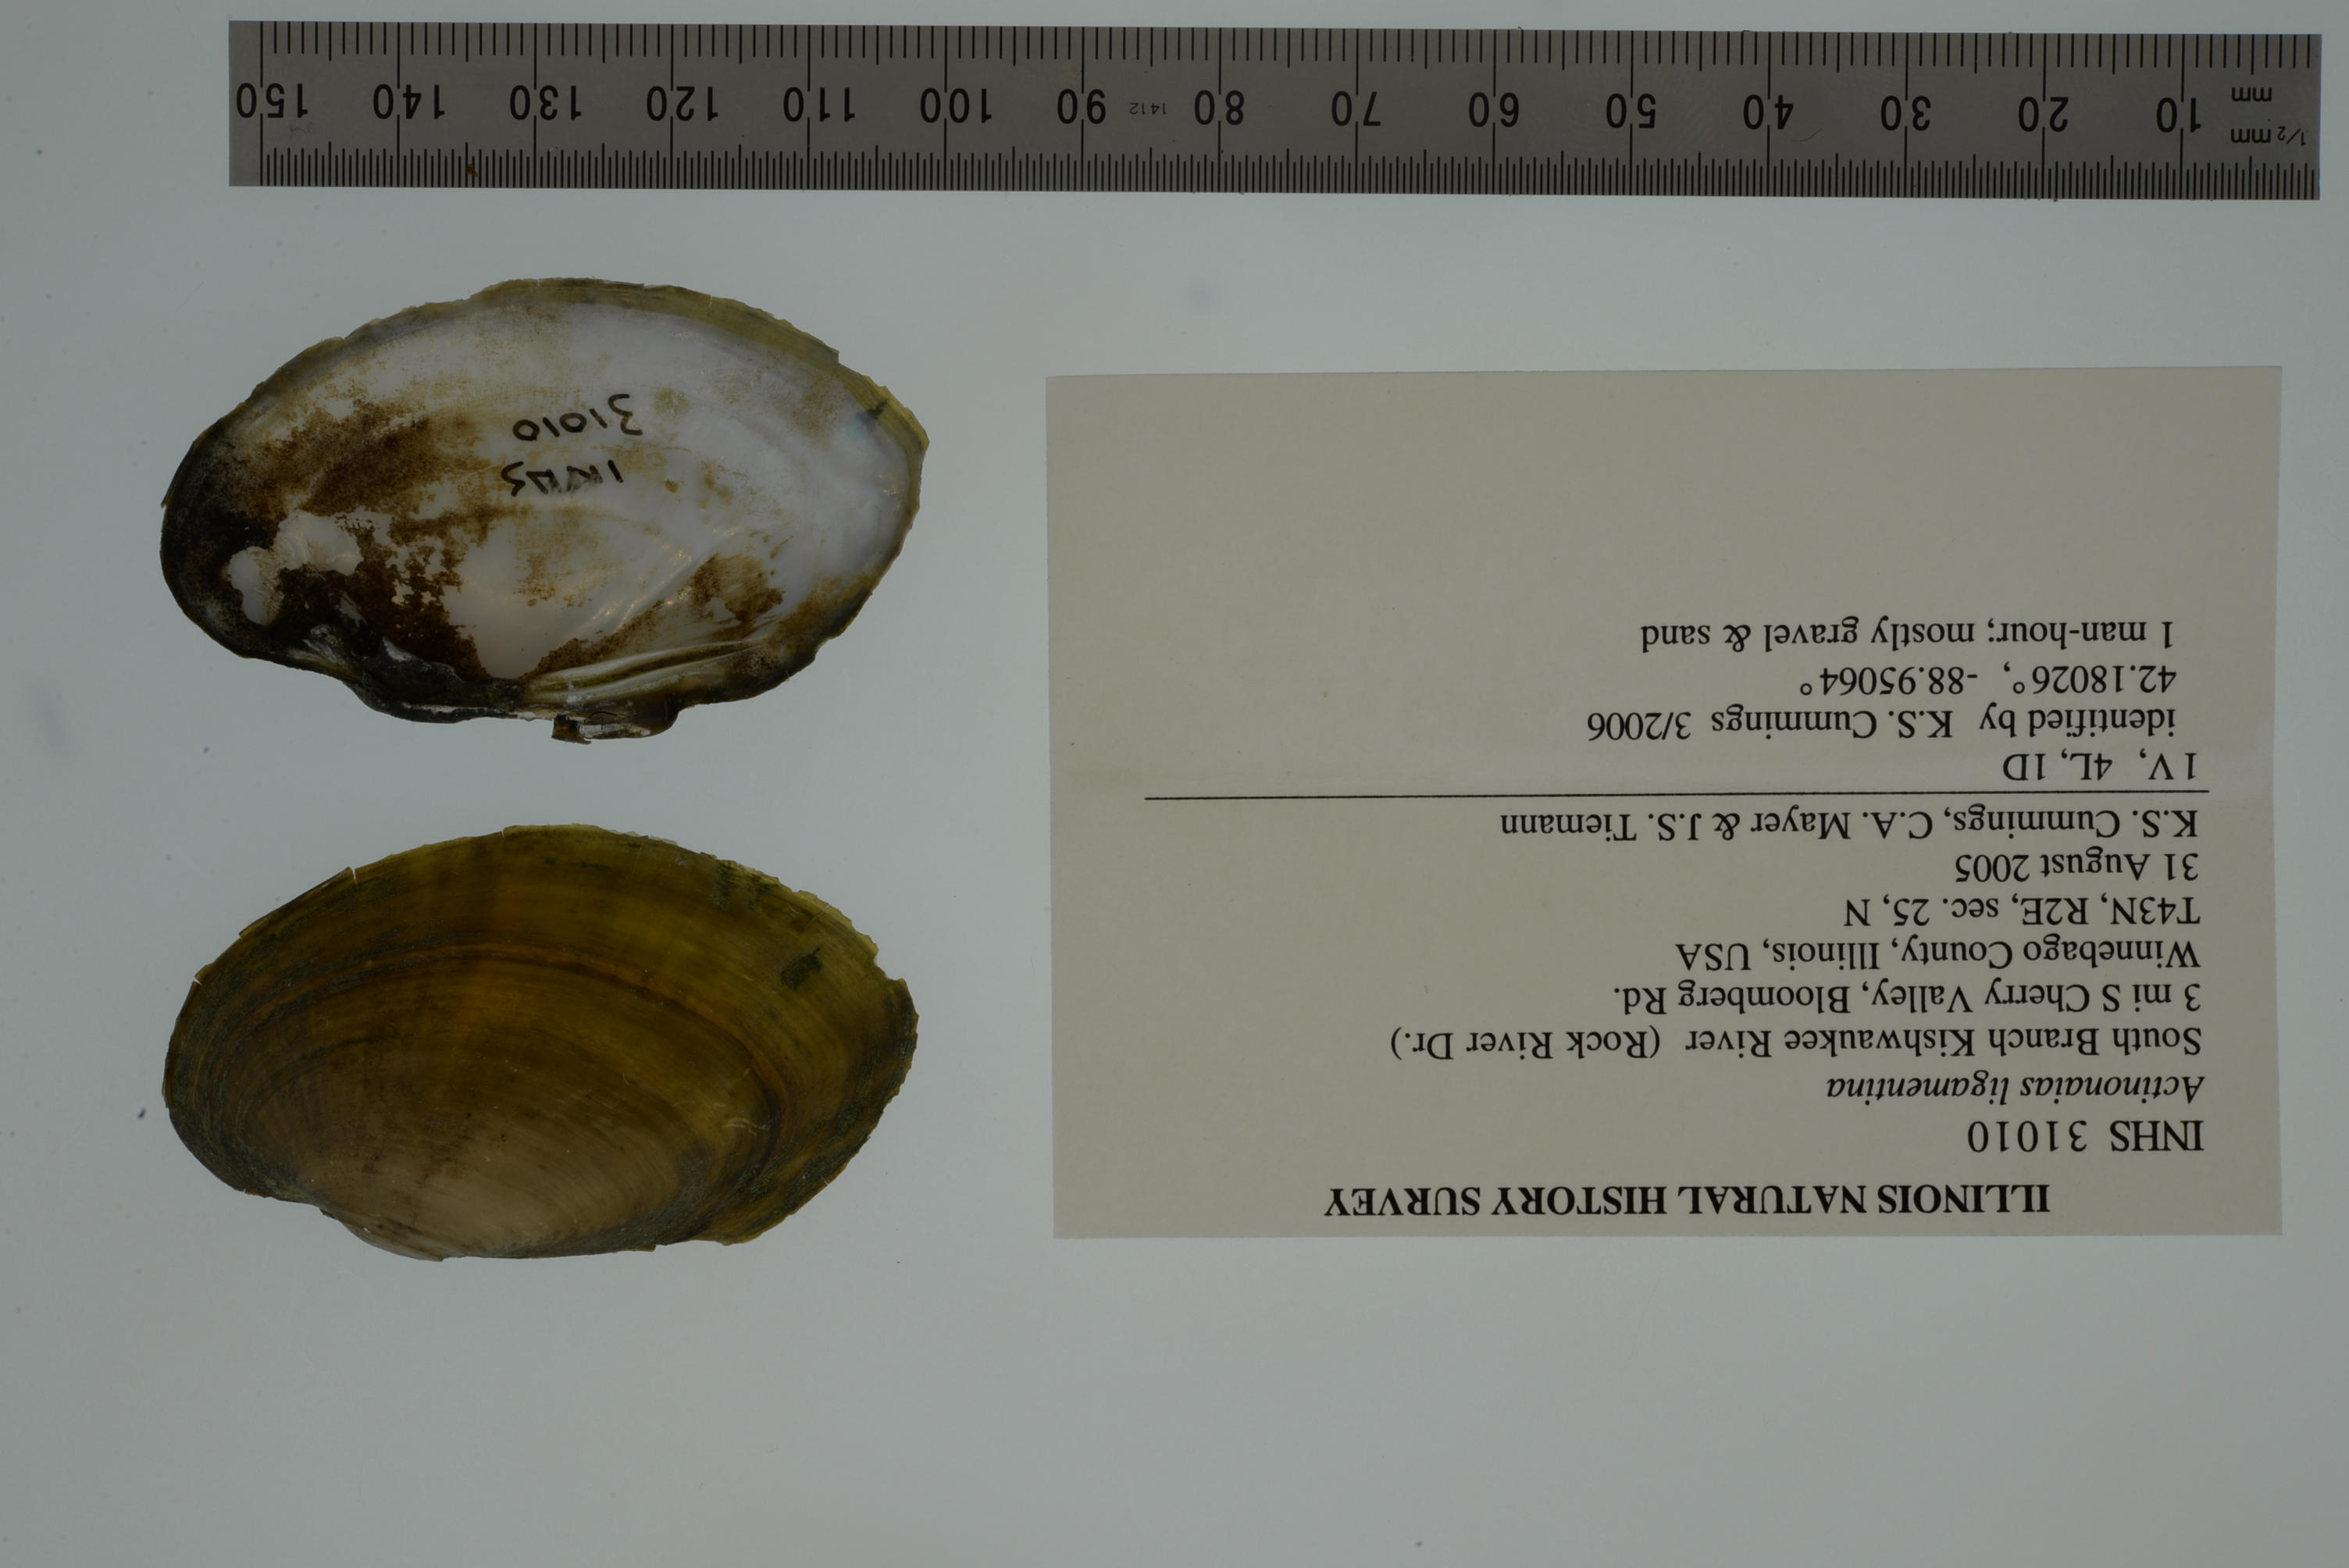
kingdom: Animalia
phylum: Mollusca
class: Bivalvia
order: Unionida
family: Unionidae
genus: Ortmanniana
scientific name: Ortmanniana ligamentina
